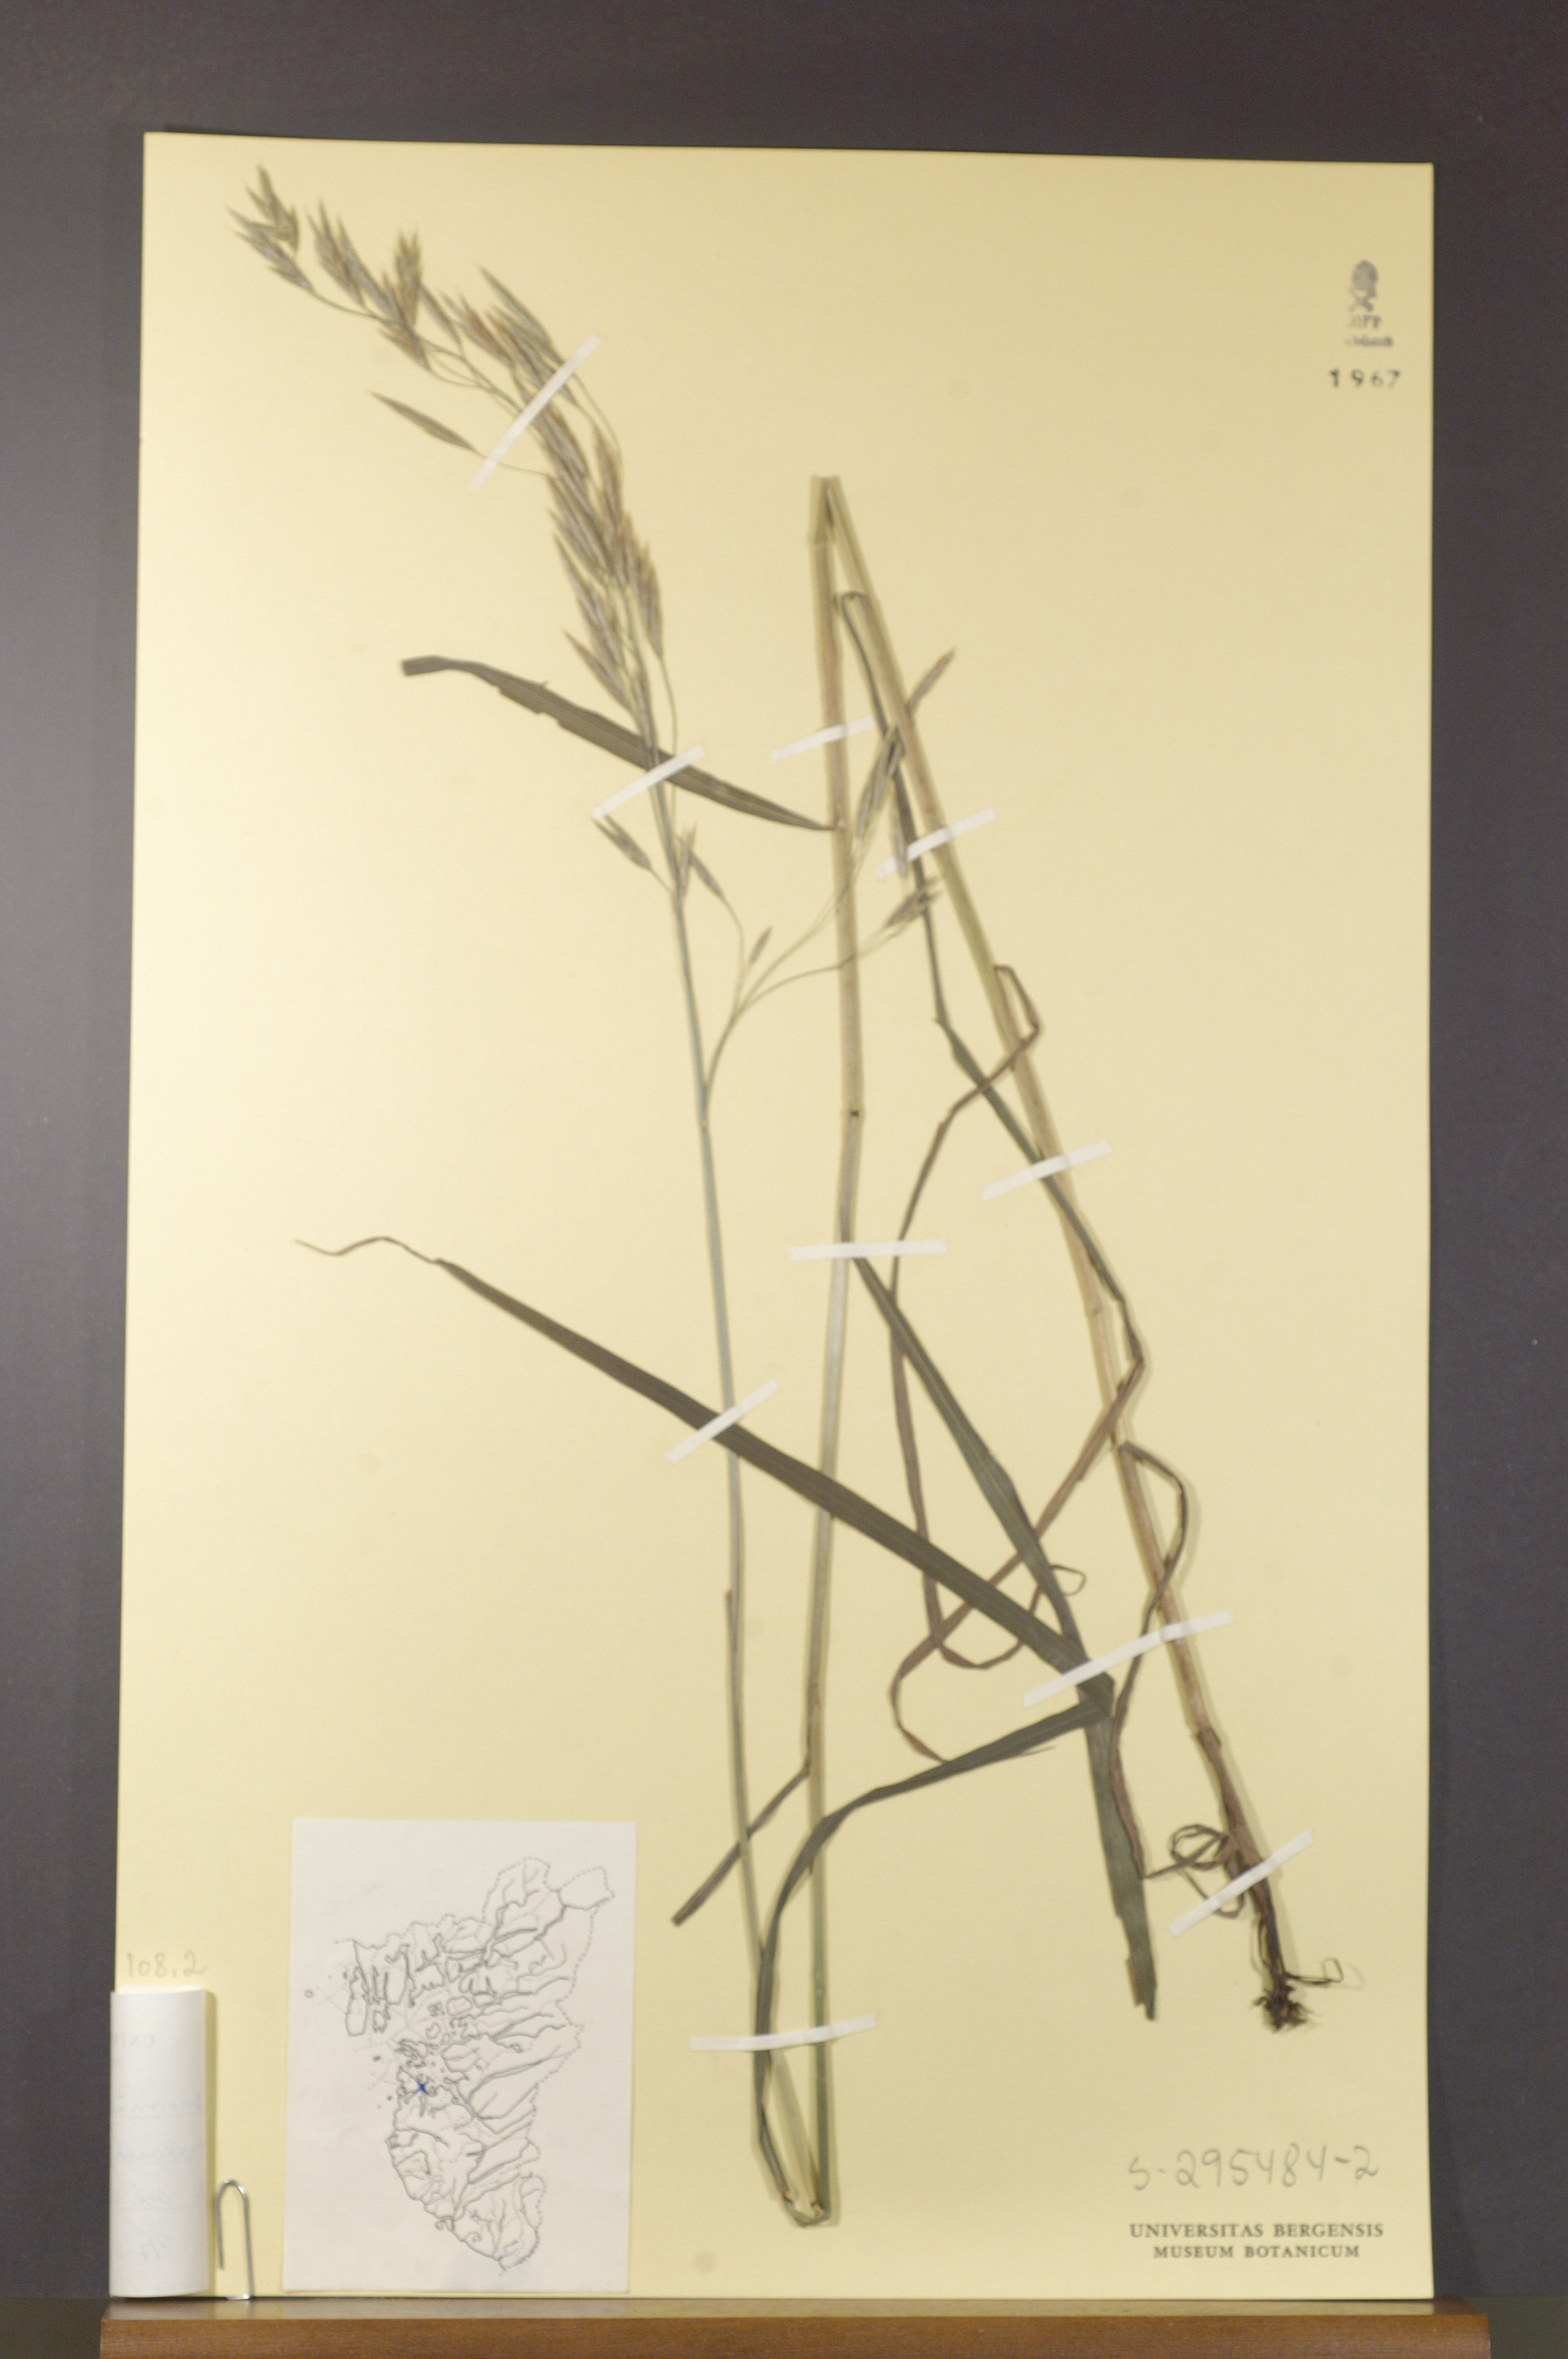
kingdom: Plantae
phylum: Tracheophyta
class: Liliopsida
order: Poales
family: Poaceae
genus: Bromus
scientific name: Bromus inermis
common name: Smooth brome
